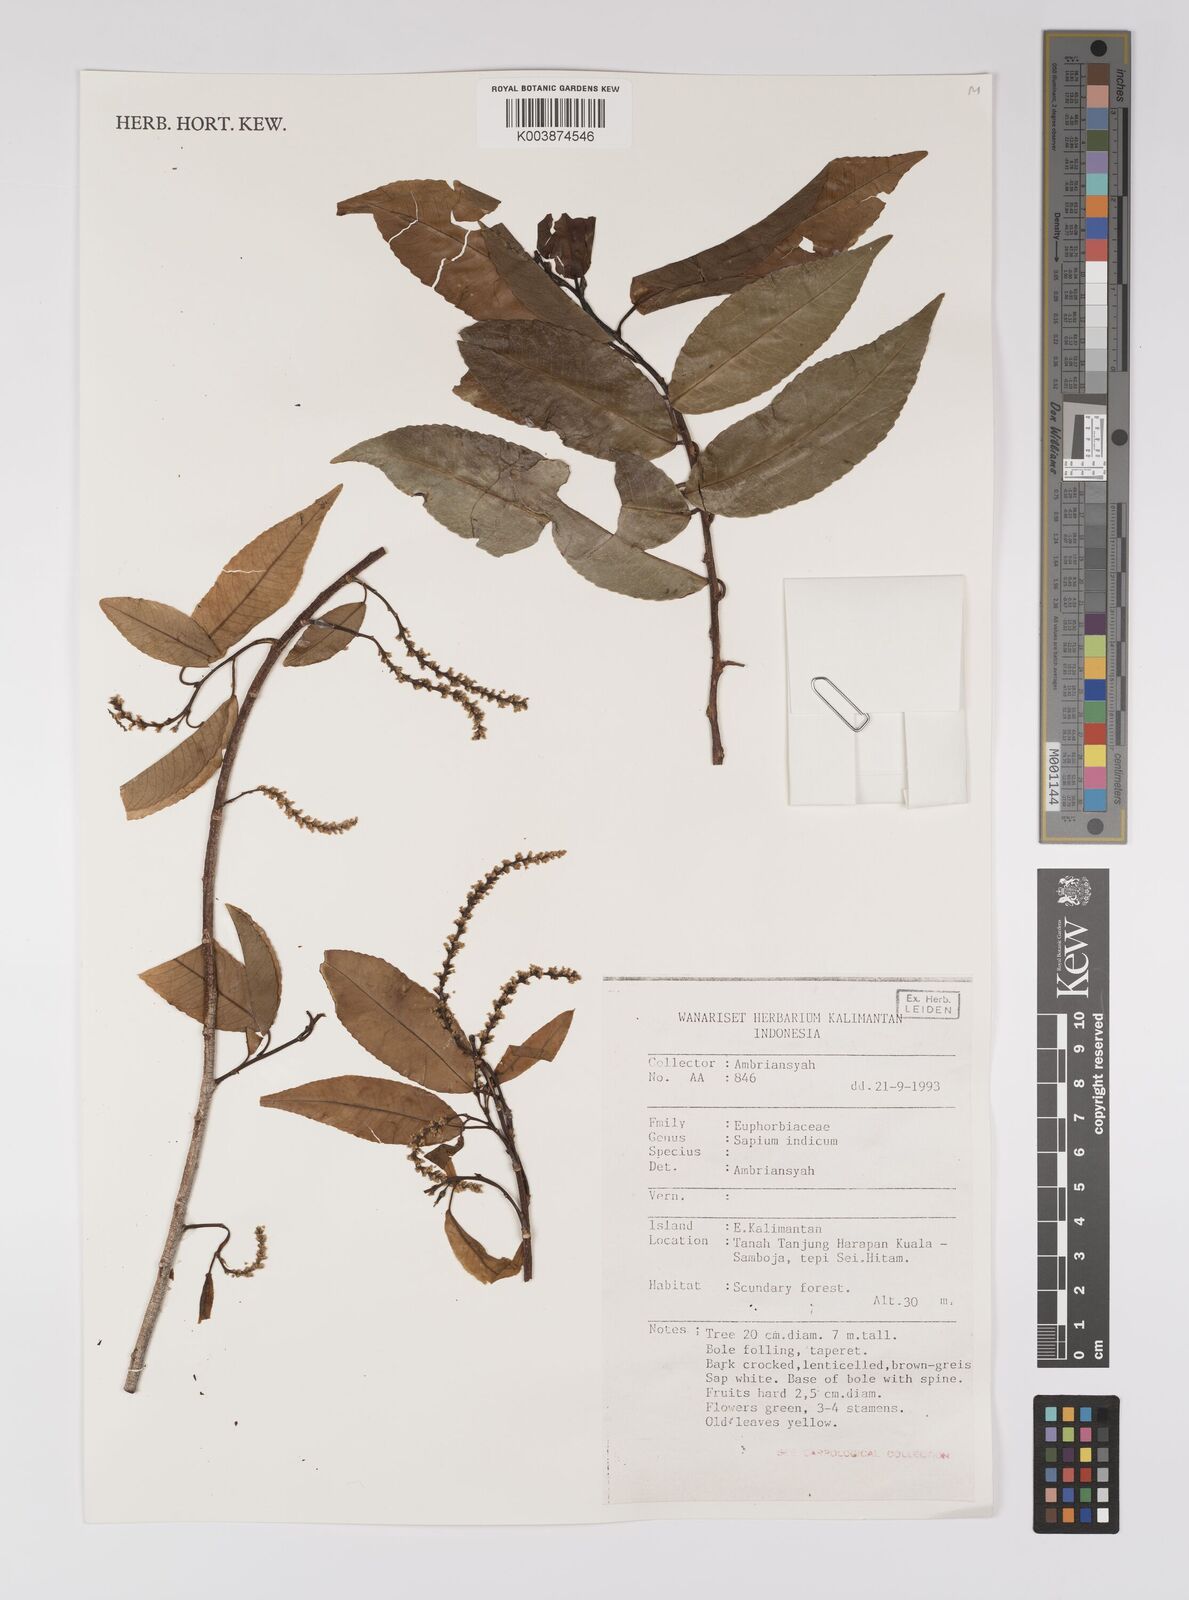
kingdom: Plantae
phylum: Tracheophyta
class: Magnoliopsida
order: Malpighiales
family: Euphorbiaceae
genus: Shirakiopsis
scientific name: Shirakiopsis indica
